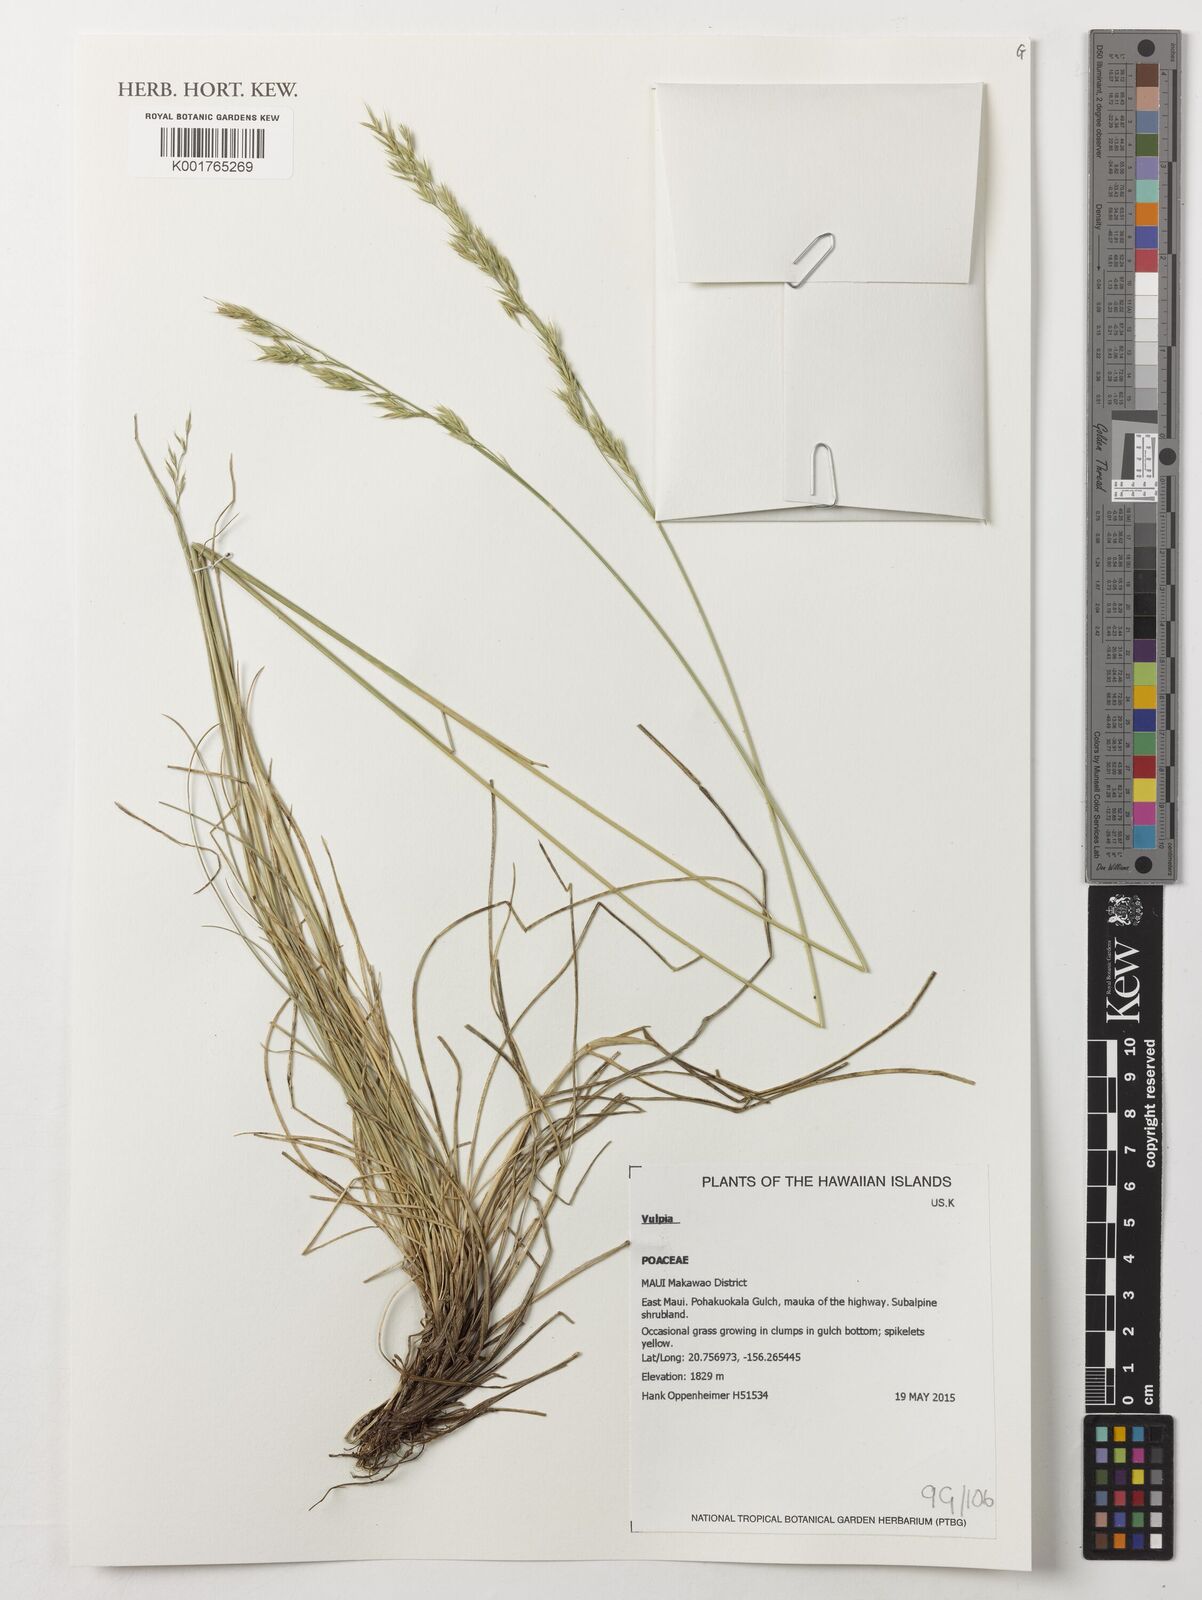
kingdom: Plantae
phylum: Tracheophyta
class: Liliopsida
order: Poales
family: Poaceae
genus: Festuca
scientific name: Festuca
